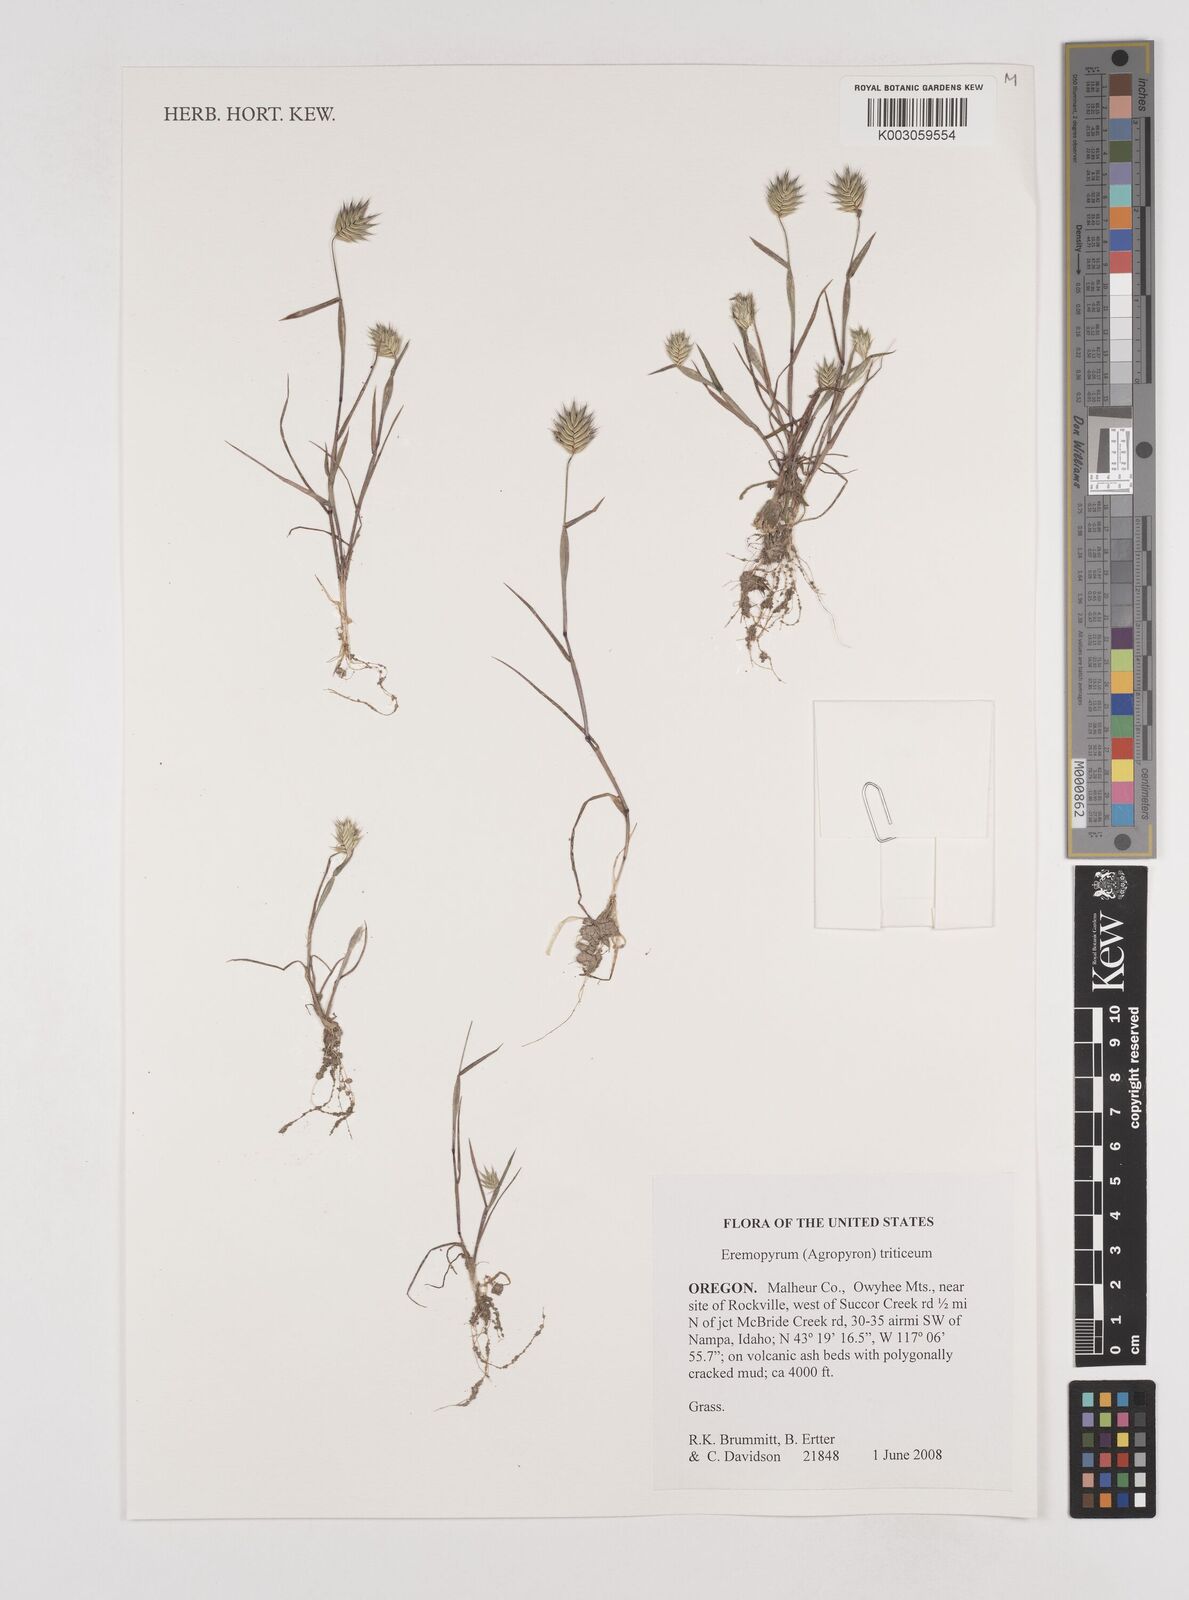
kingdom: Plantae
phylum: Tracheophyta
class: Liliopsida
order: Poales
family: Poaceae
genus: Eremopyrum
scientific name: Eremopyrum triticeum
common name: Annual wheatgrass
